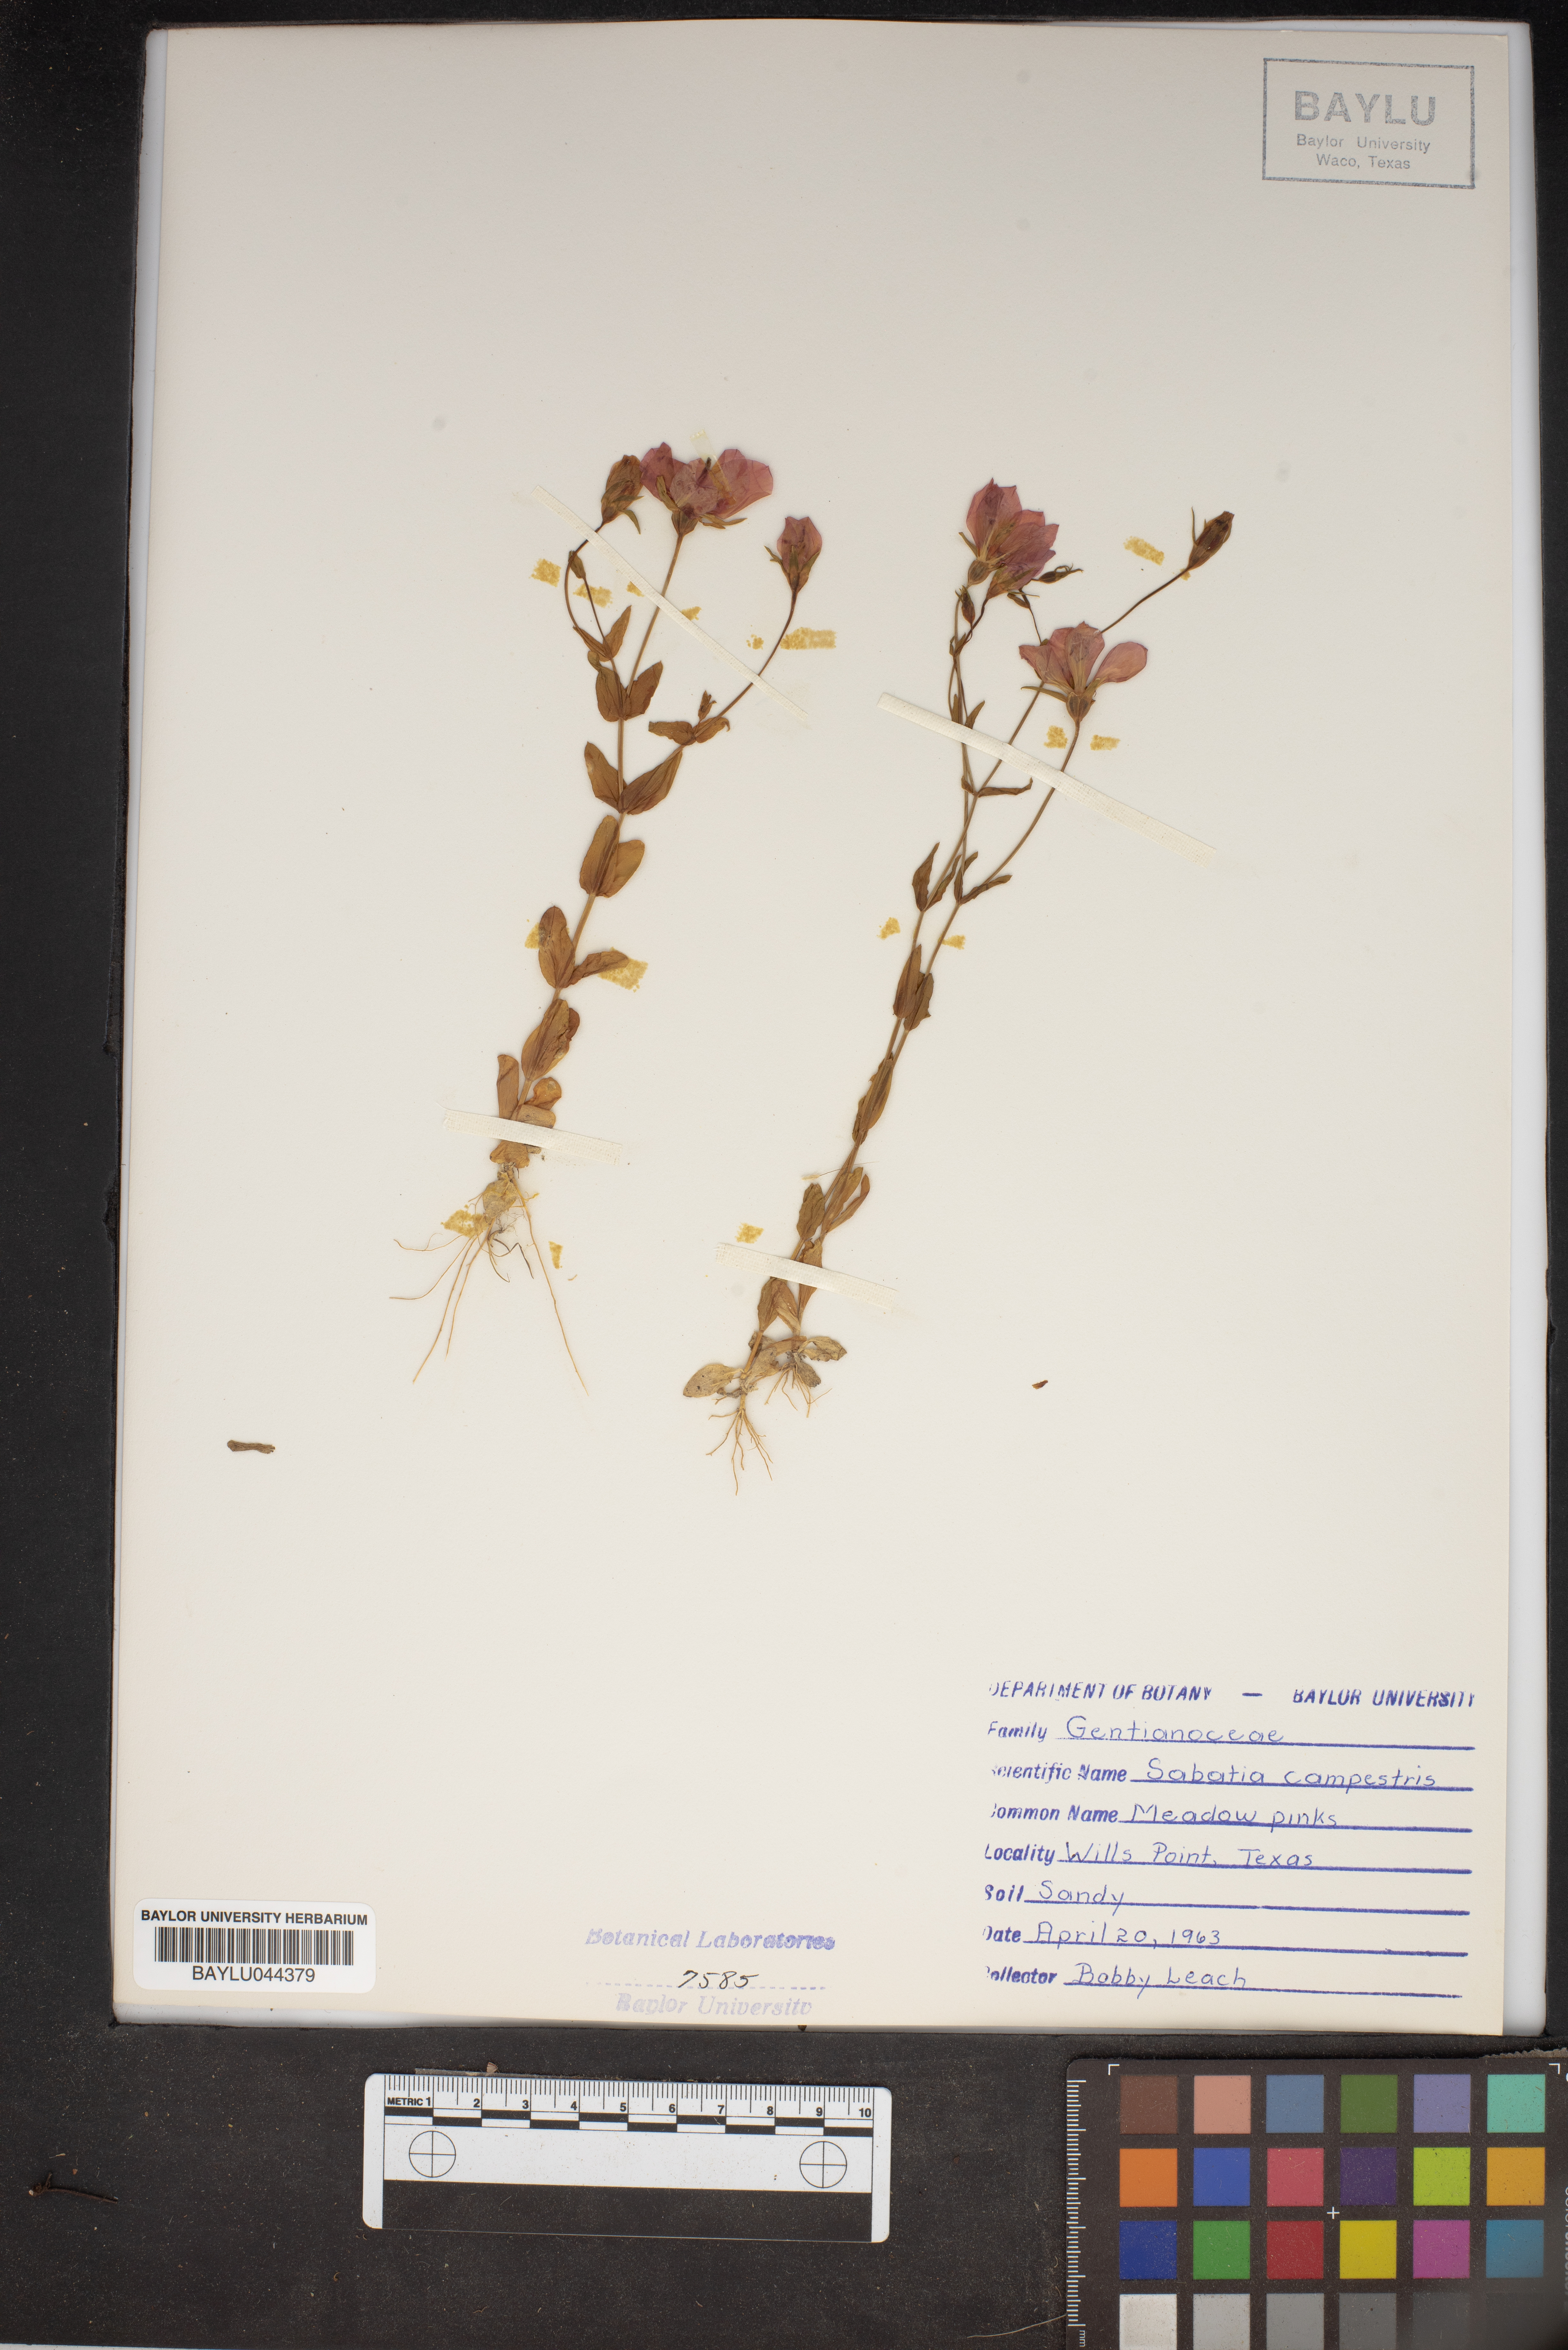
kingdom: Plantae
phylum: Tracheophyta
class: Magnoliopsida
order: Gentianales
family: Gentianaceae
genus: Sabatia
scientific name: Sabatia campestris
